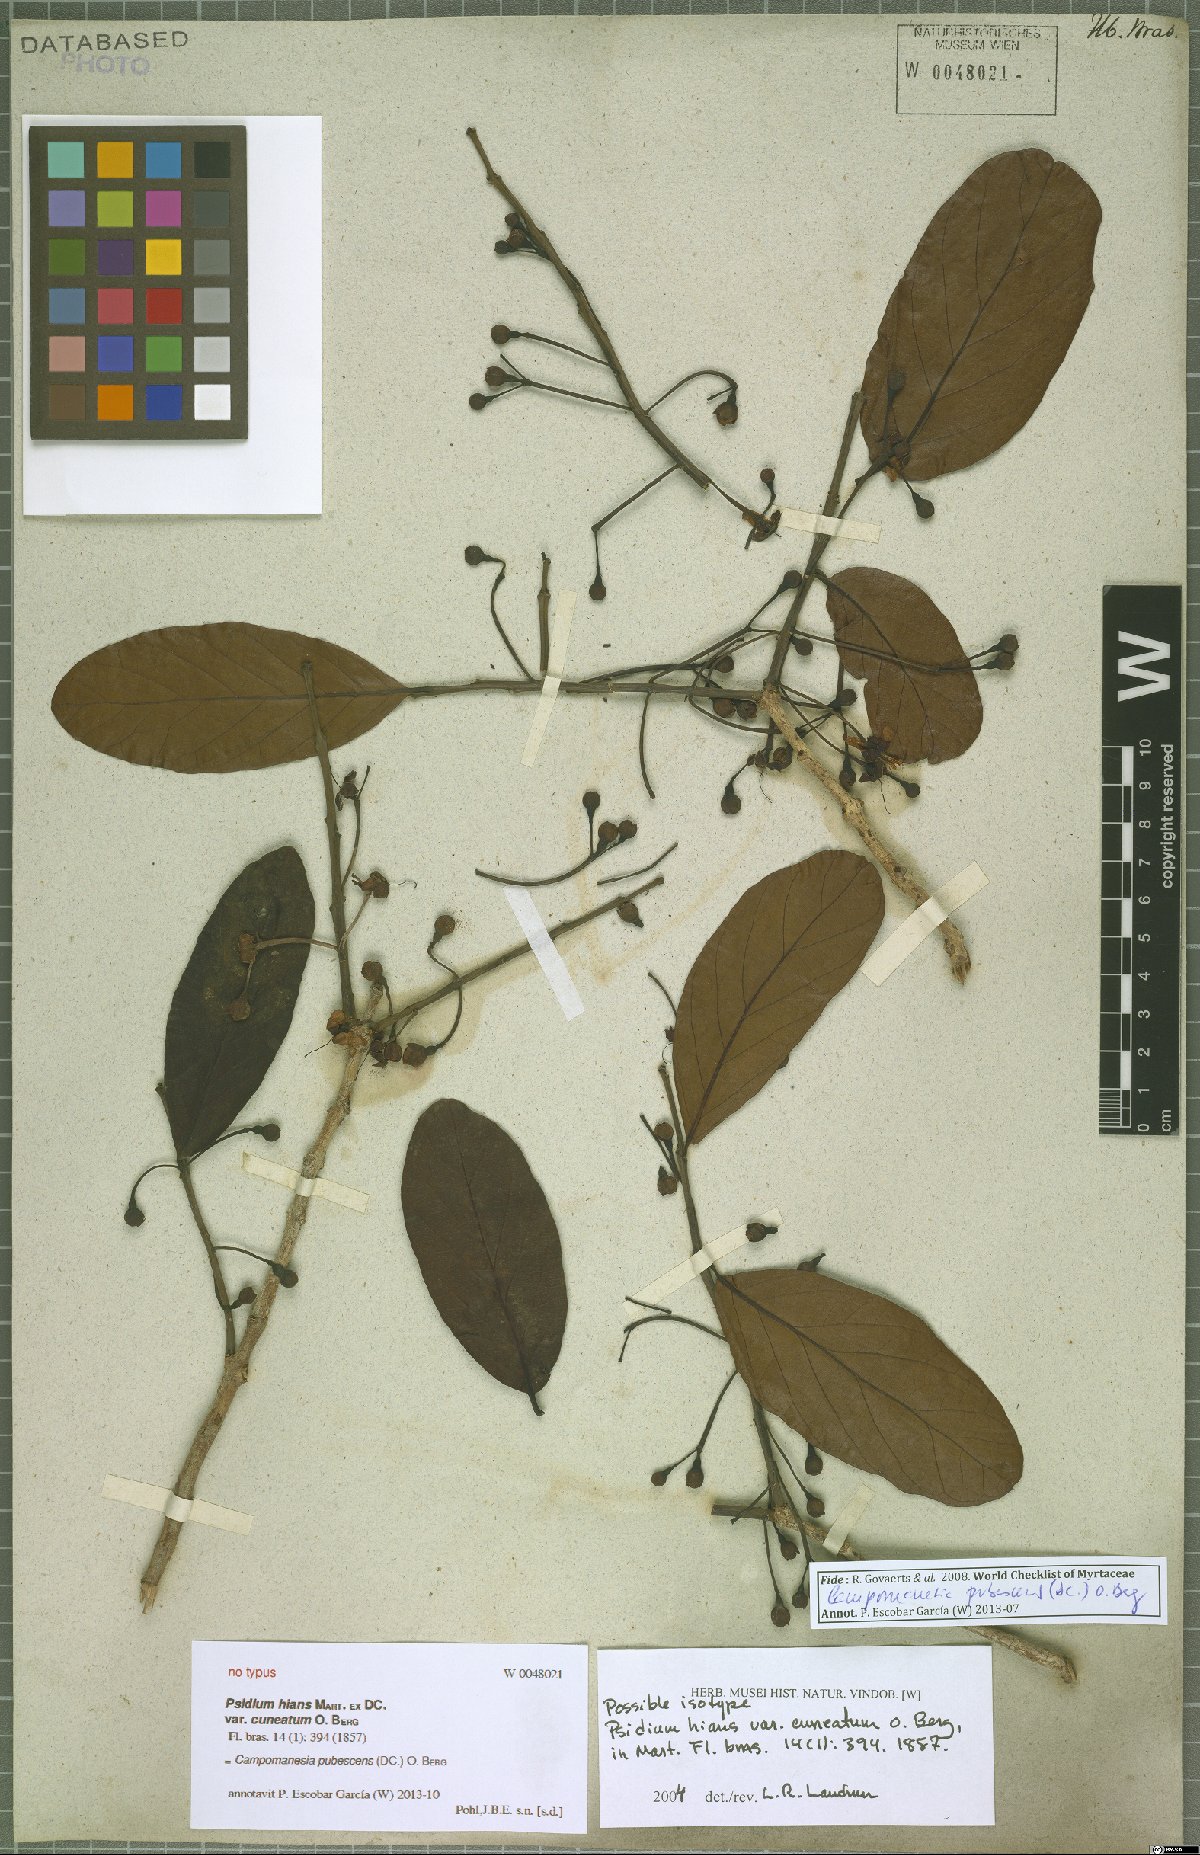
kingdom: Plantae
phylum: Tracheophyta
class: Magnoliopsida
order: Myrtales
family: Myrtaceae
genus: Campomanesia
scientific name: Campomanesia pubescens
